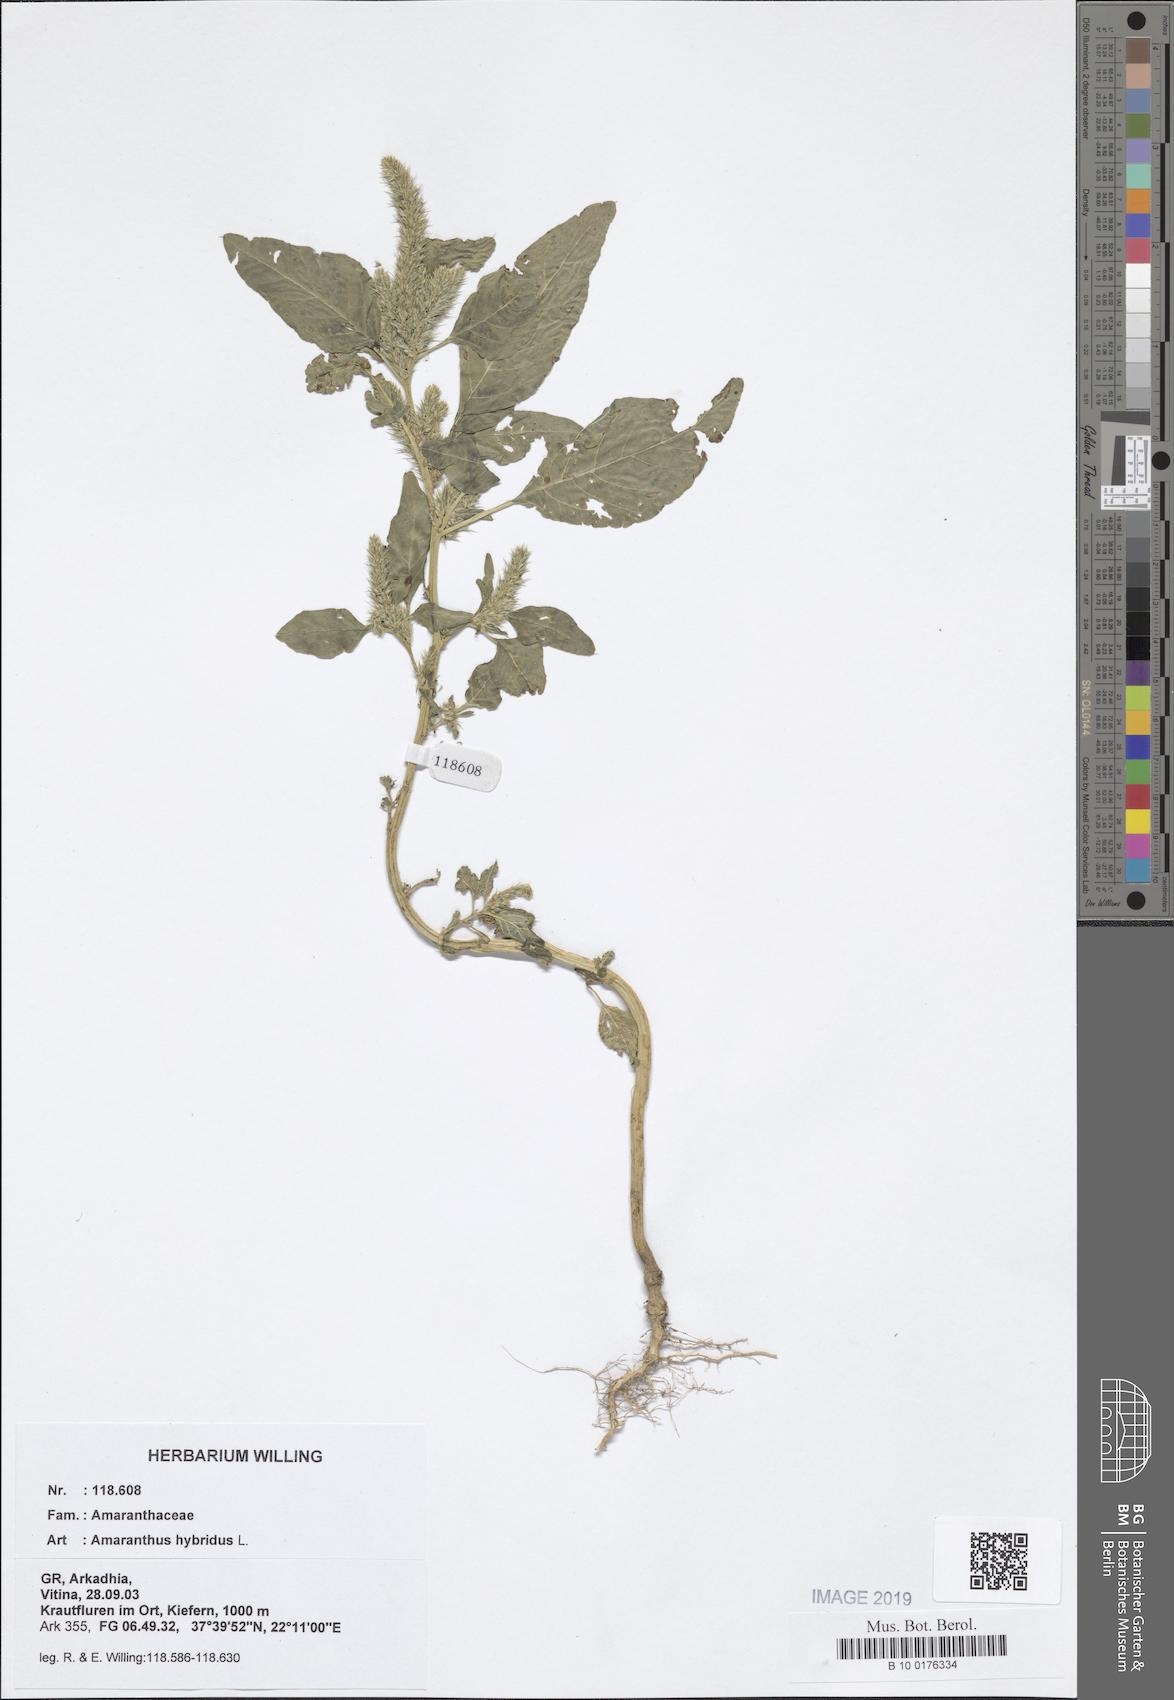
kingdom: Plantae
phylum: Tracheophyta
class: Magnoliopsida
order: Caryophyllales
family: Amaranthaceae
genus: Amaranthus
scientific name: Amaranthus hybridus
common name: Green amaranth
